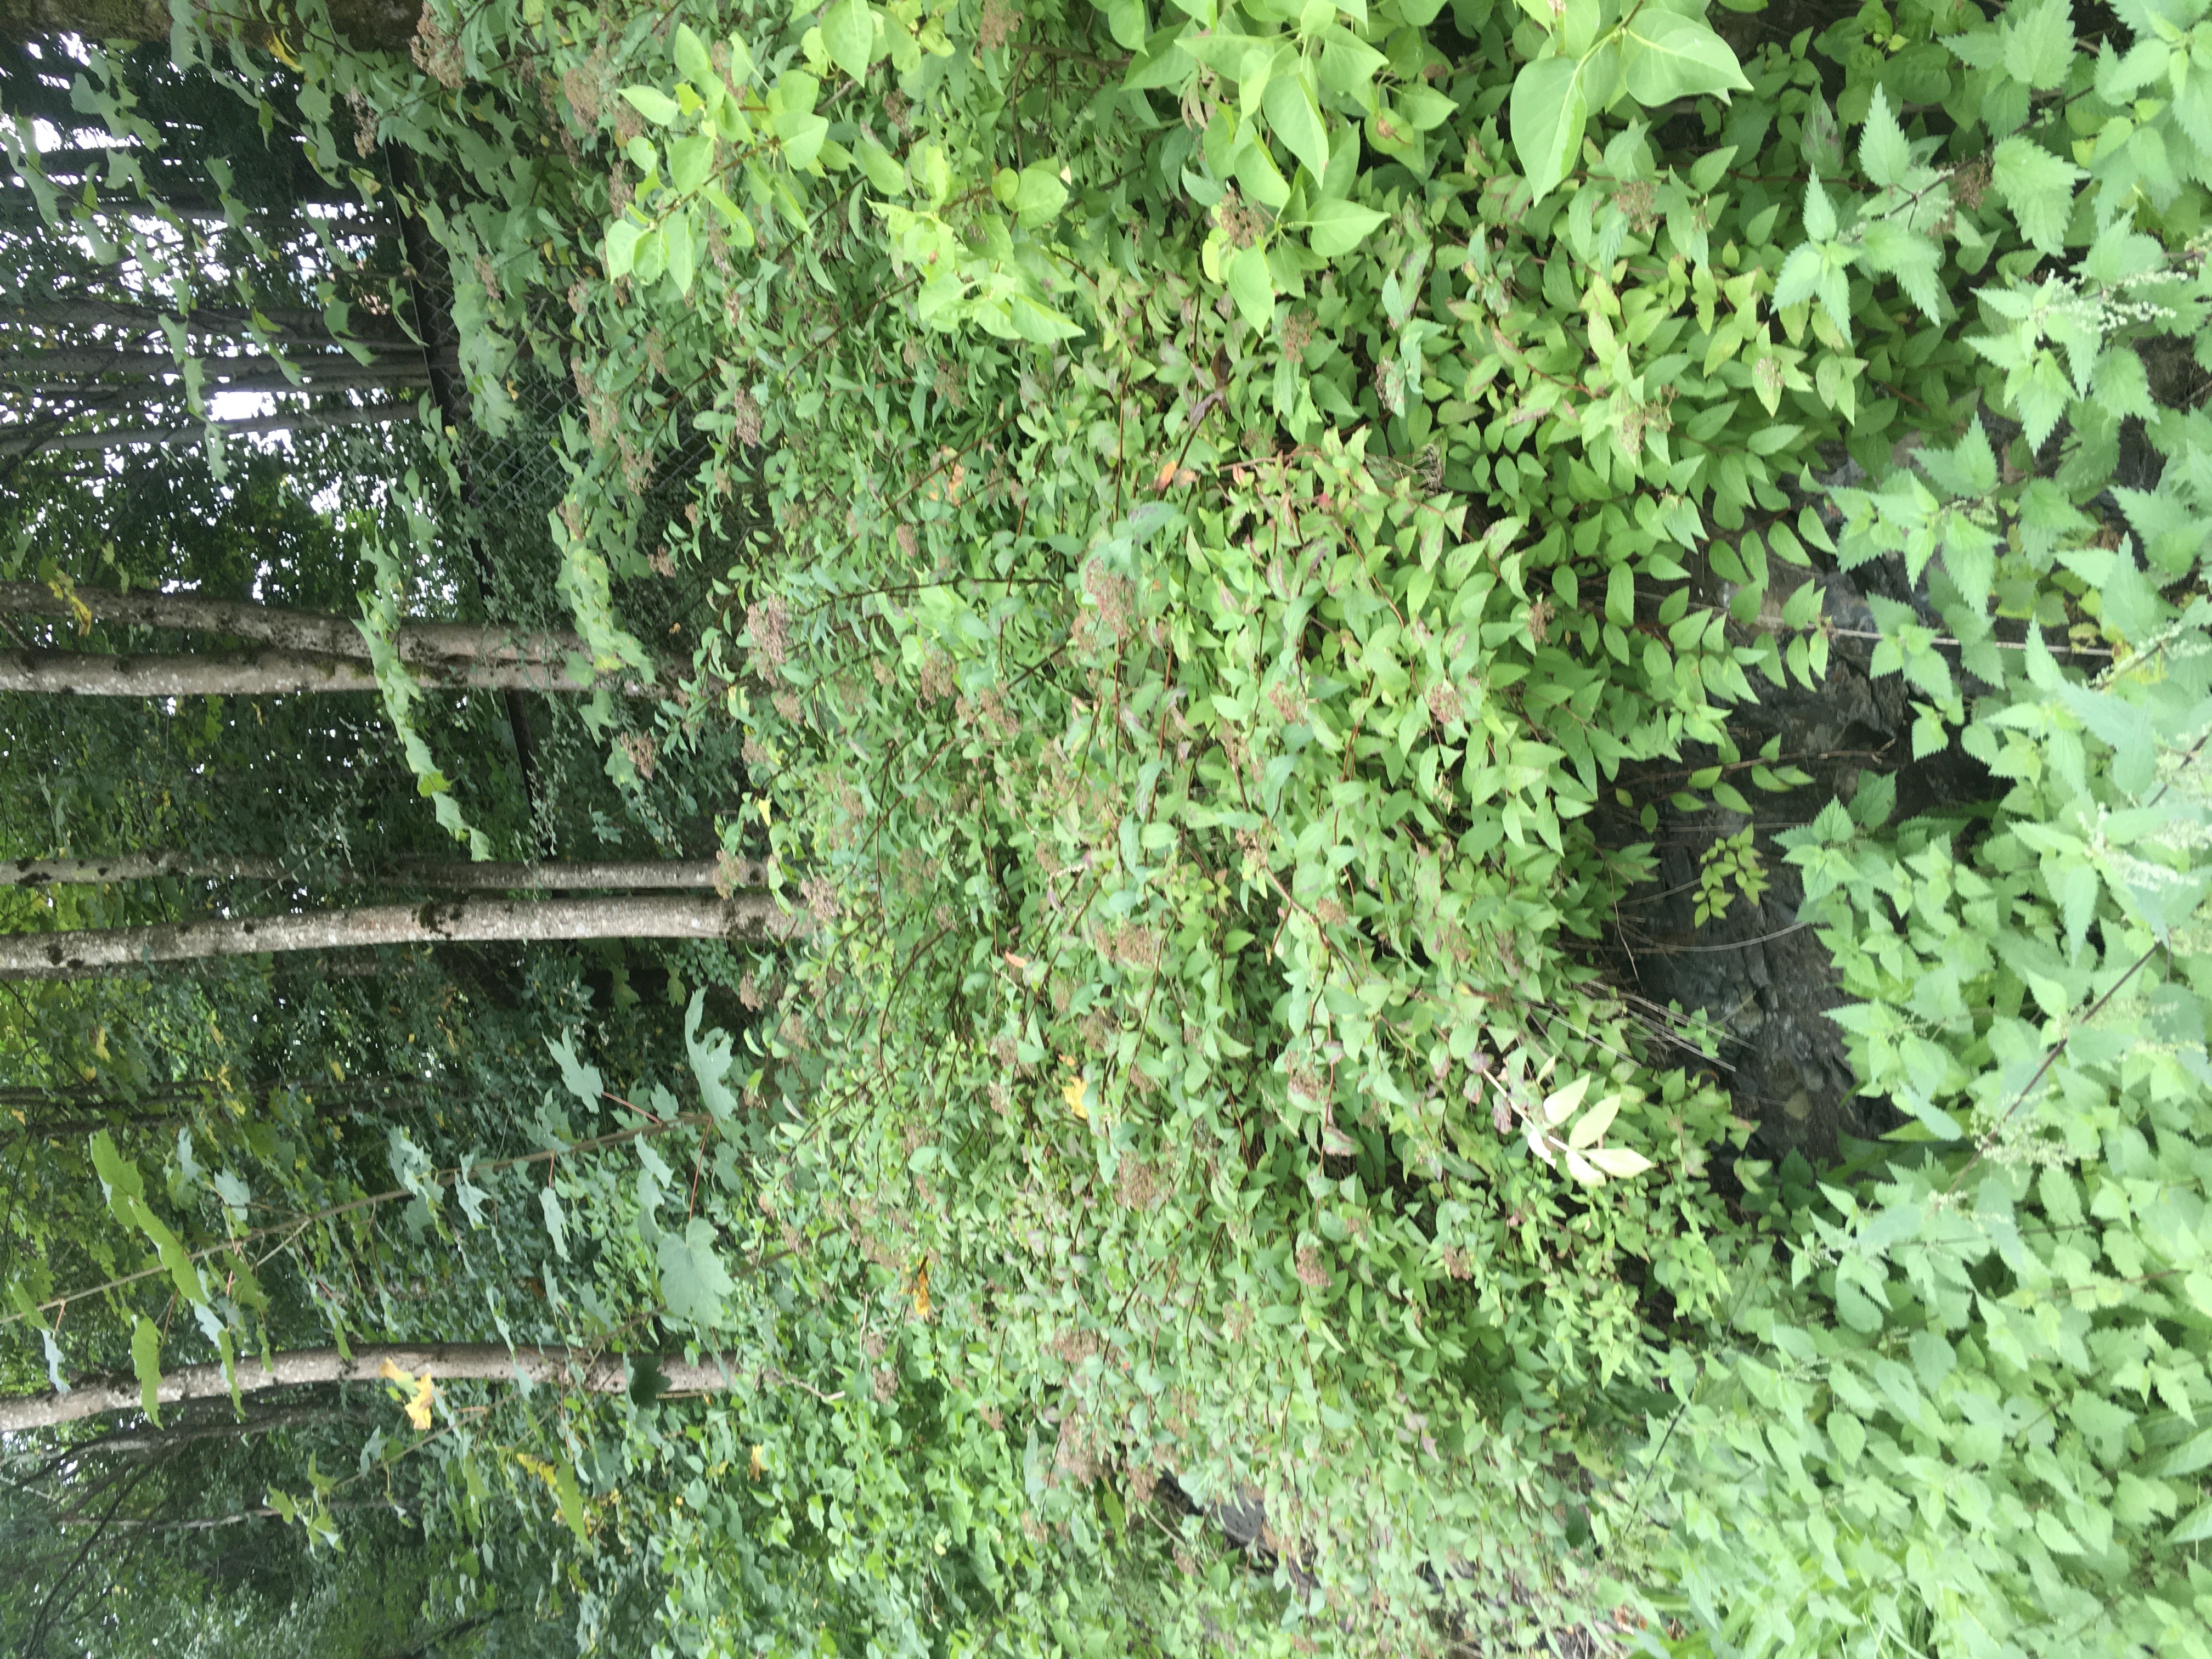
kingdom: Plantae
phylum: Tracheophyta
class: Magnoliopsida
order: Rosales
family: Rosaceae
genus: Spiraea
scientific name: Spiraea japonica
